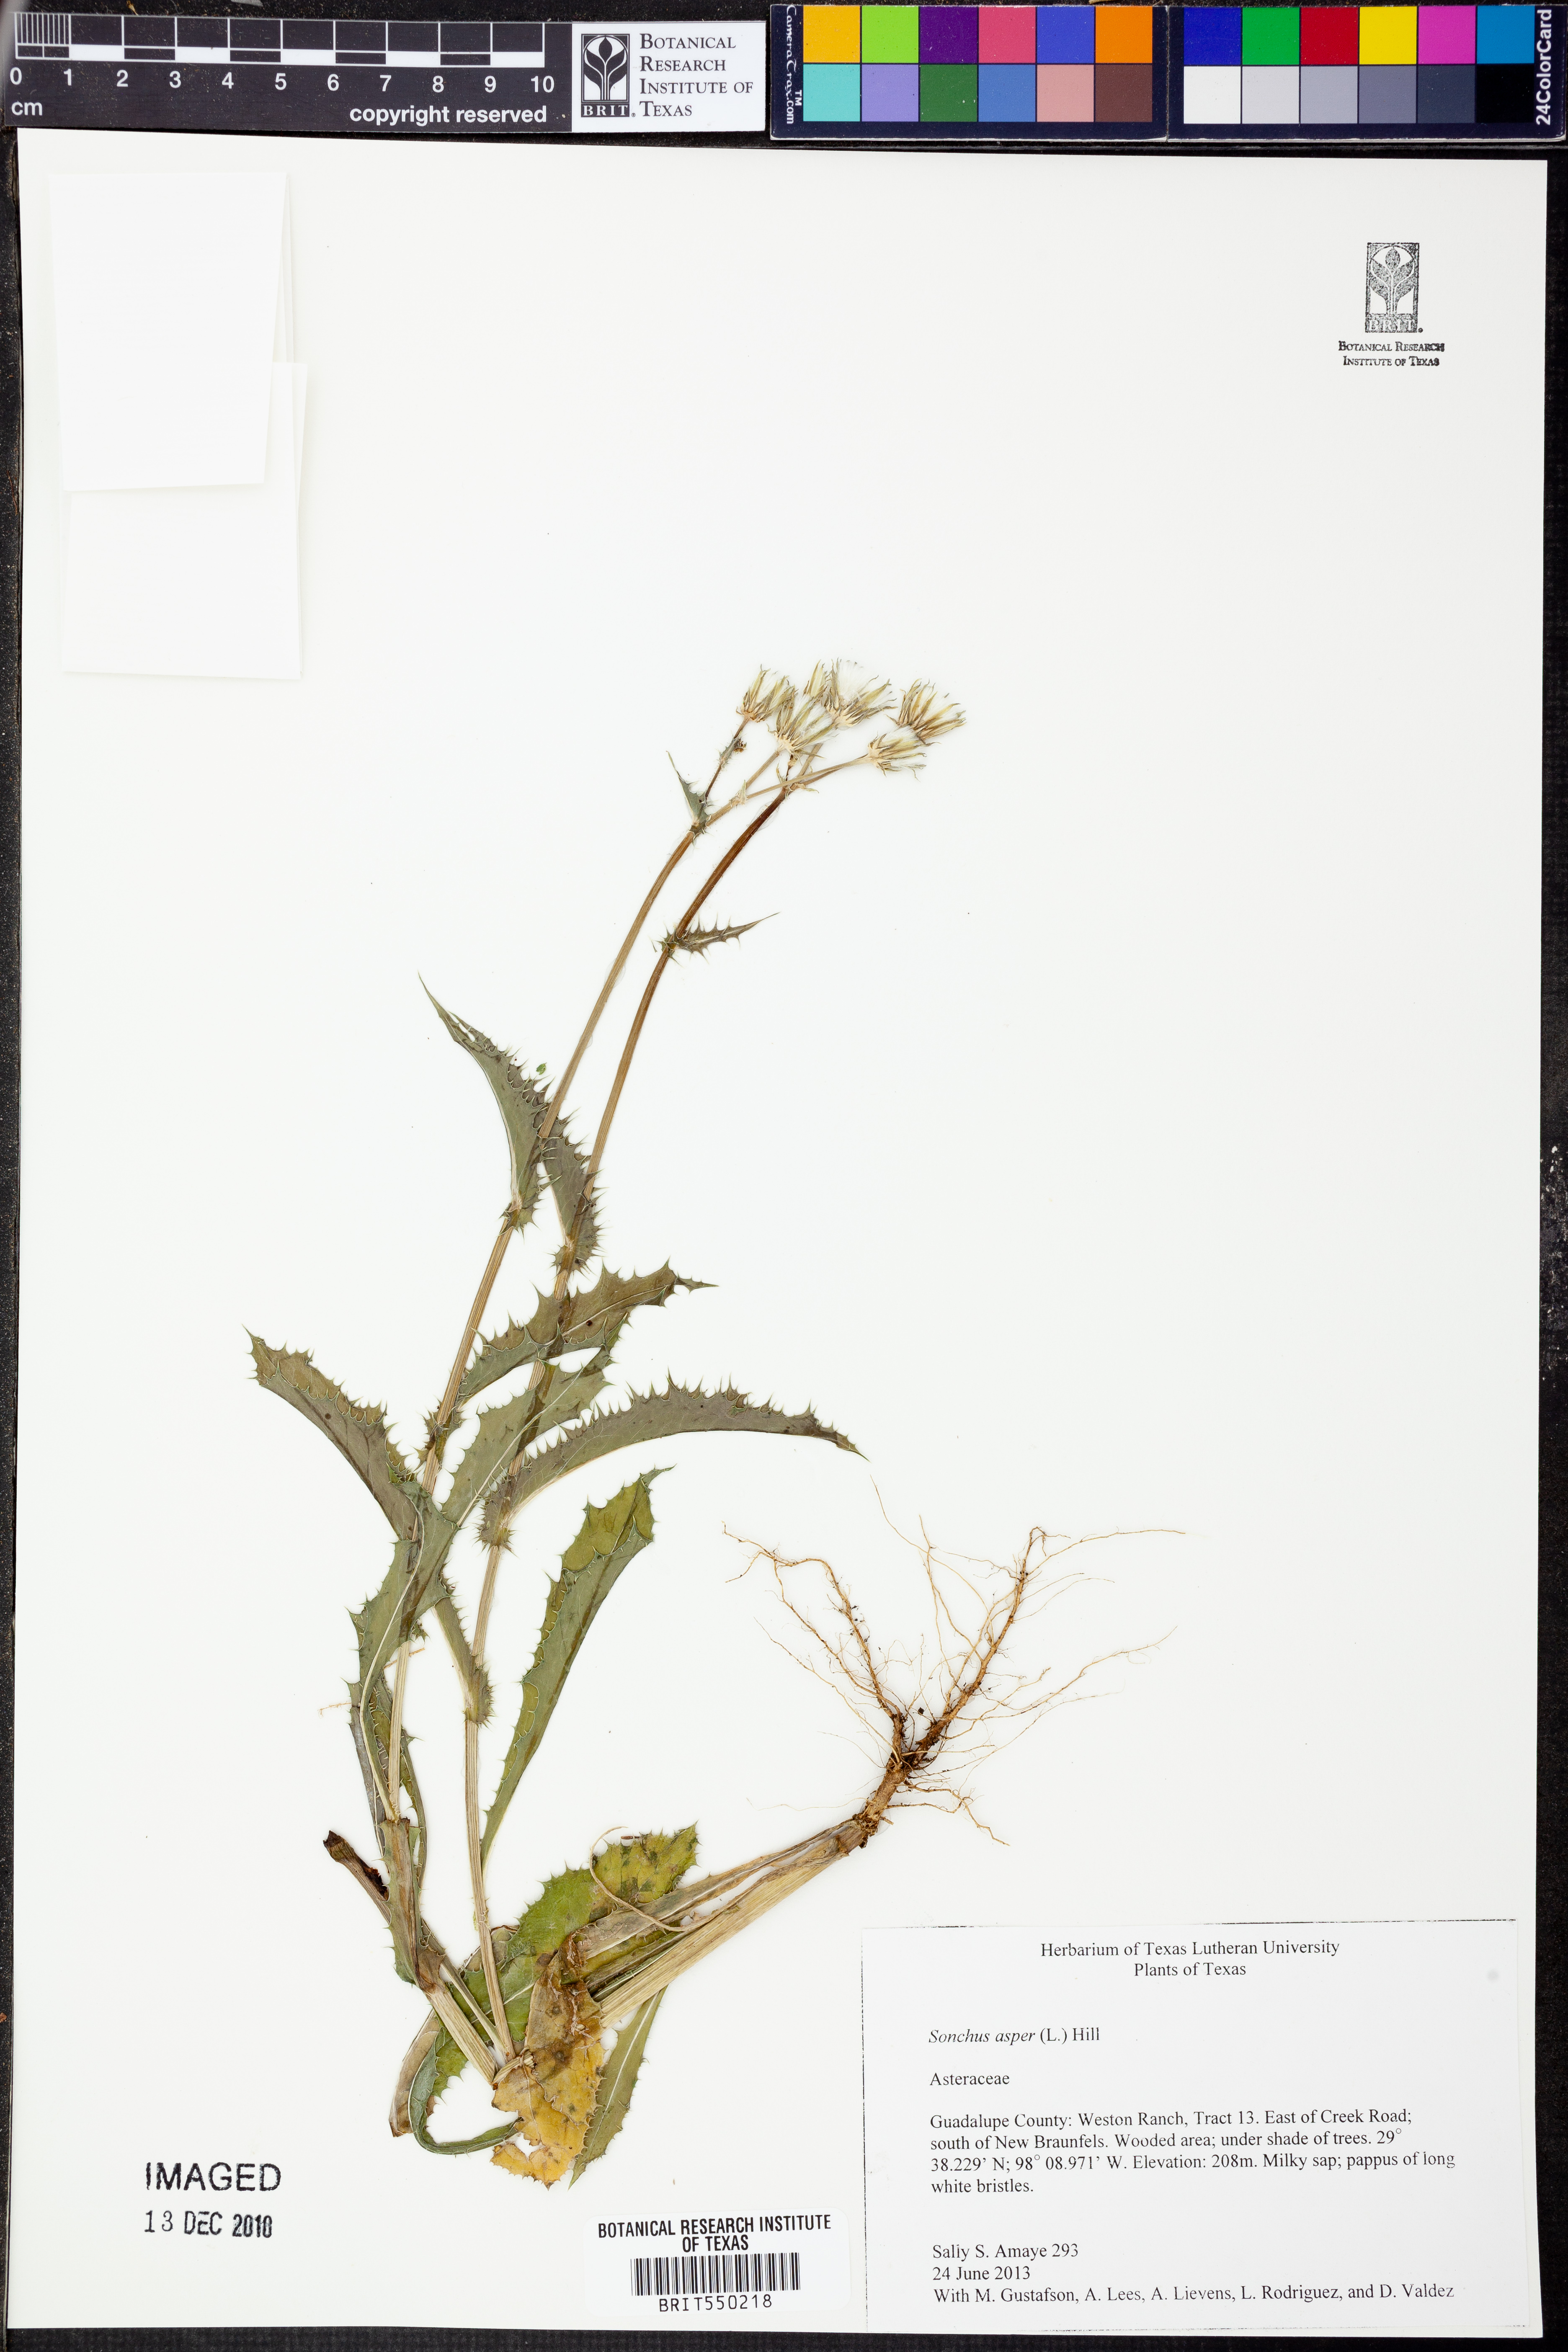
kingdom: Plantae
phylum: Tracheophyta
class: Magnoliopsida
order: Asterales
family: Asteraceae
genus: Sonchus
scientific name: Sonchus asper
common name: Prickly sow-thistle
